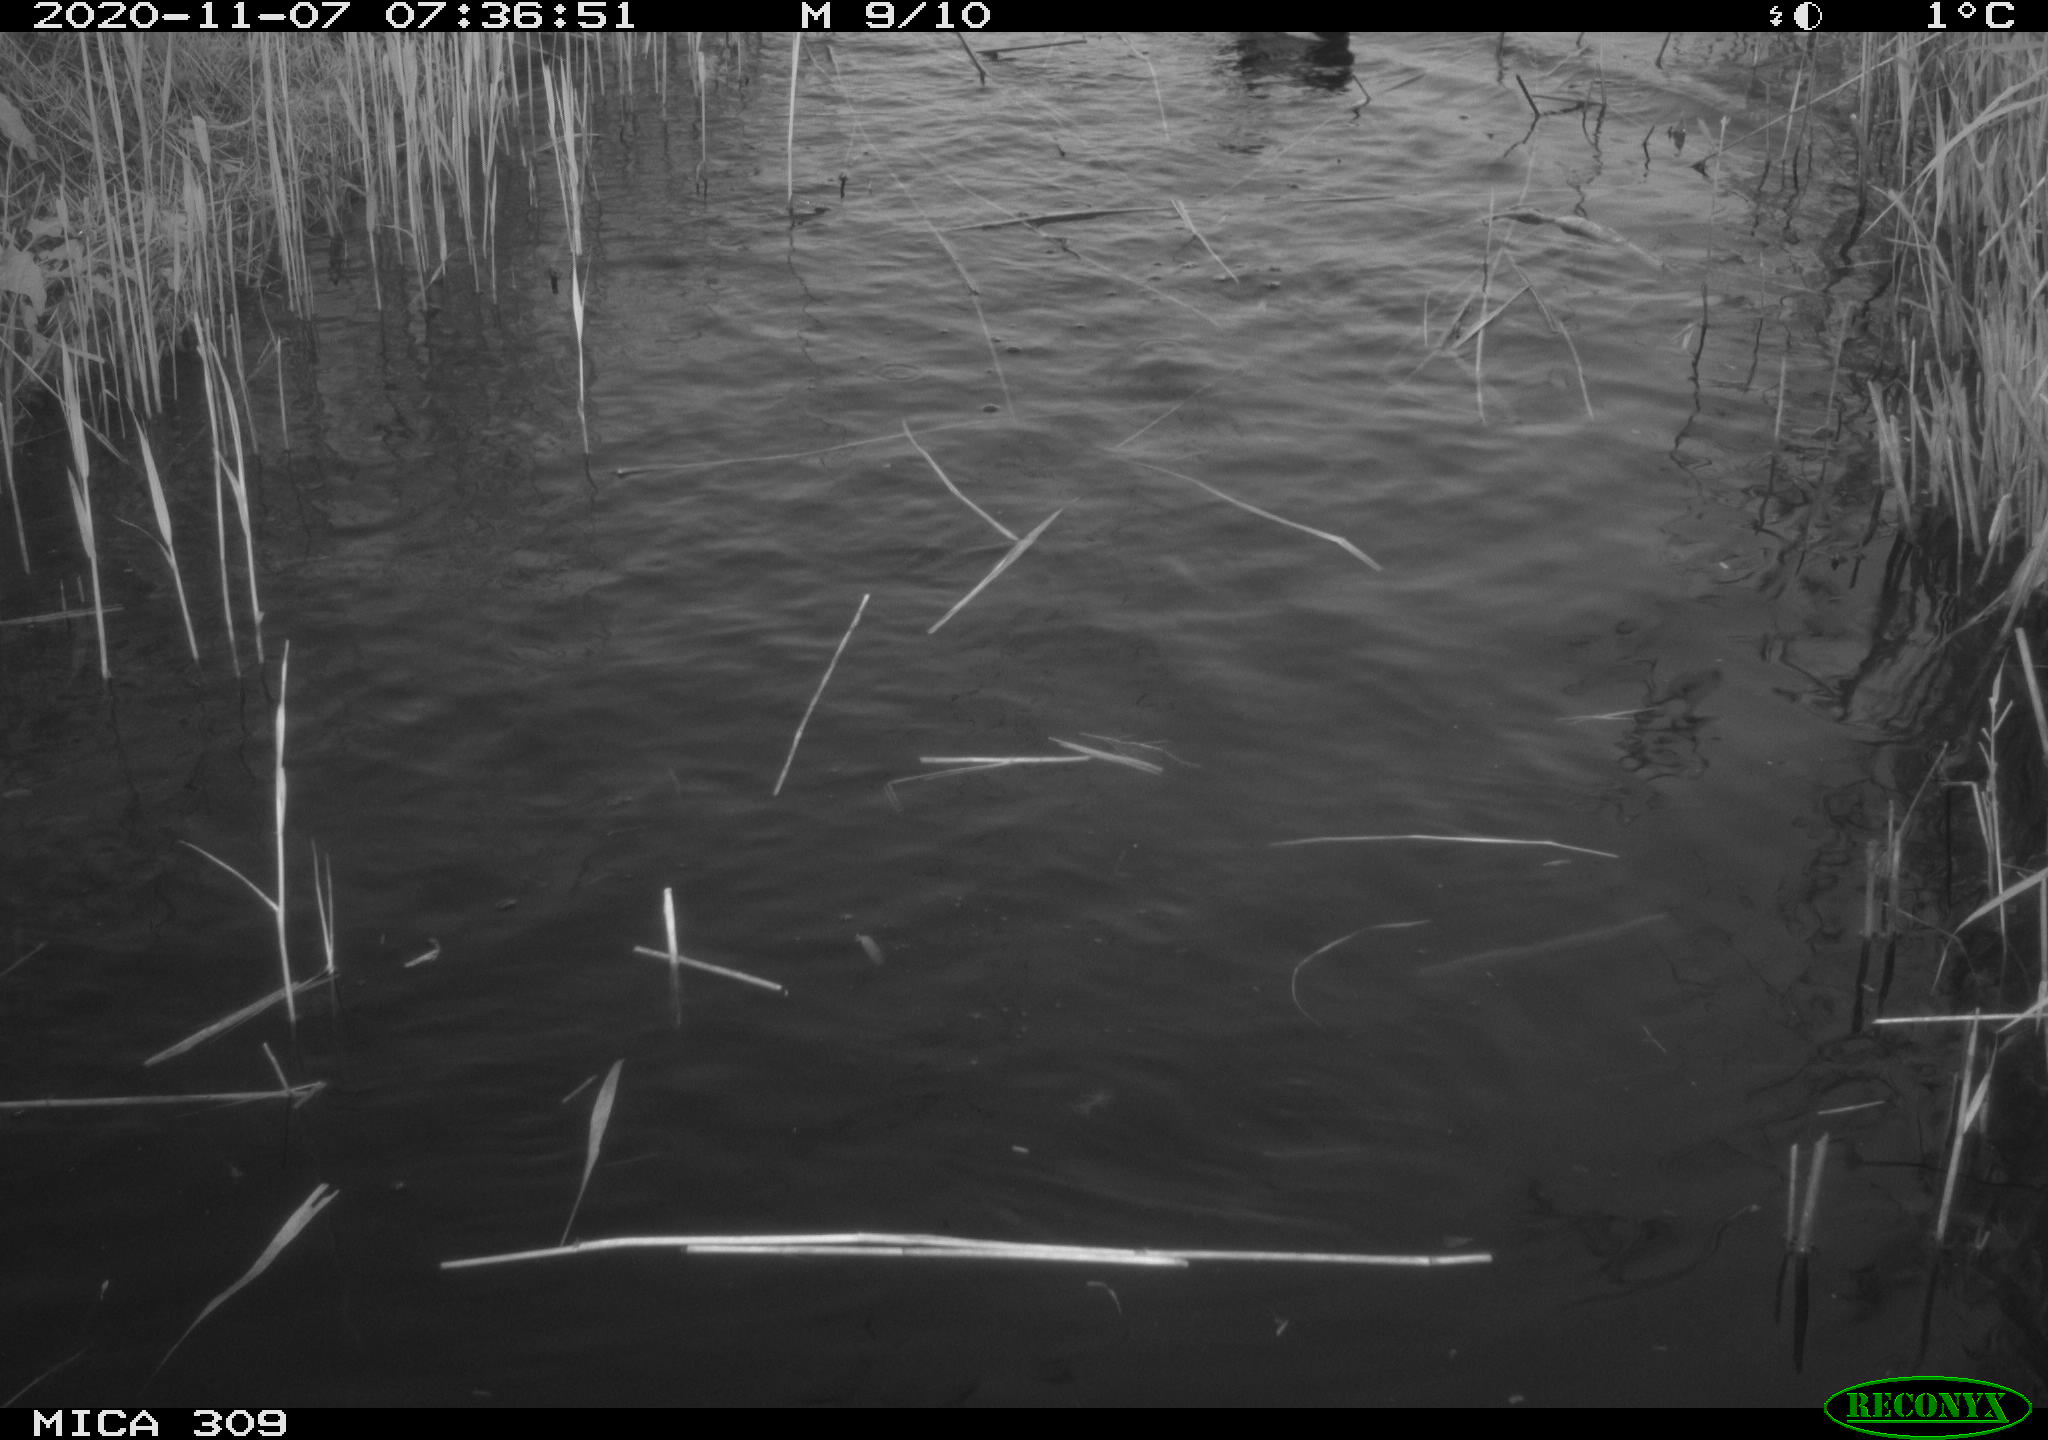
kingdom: Animalia
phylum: Chordata
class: Aves
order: Anseriformes
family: Anatidae
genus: Anas
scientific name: Anas platyrhynchos
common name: Mallard
